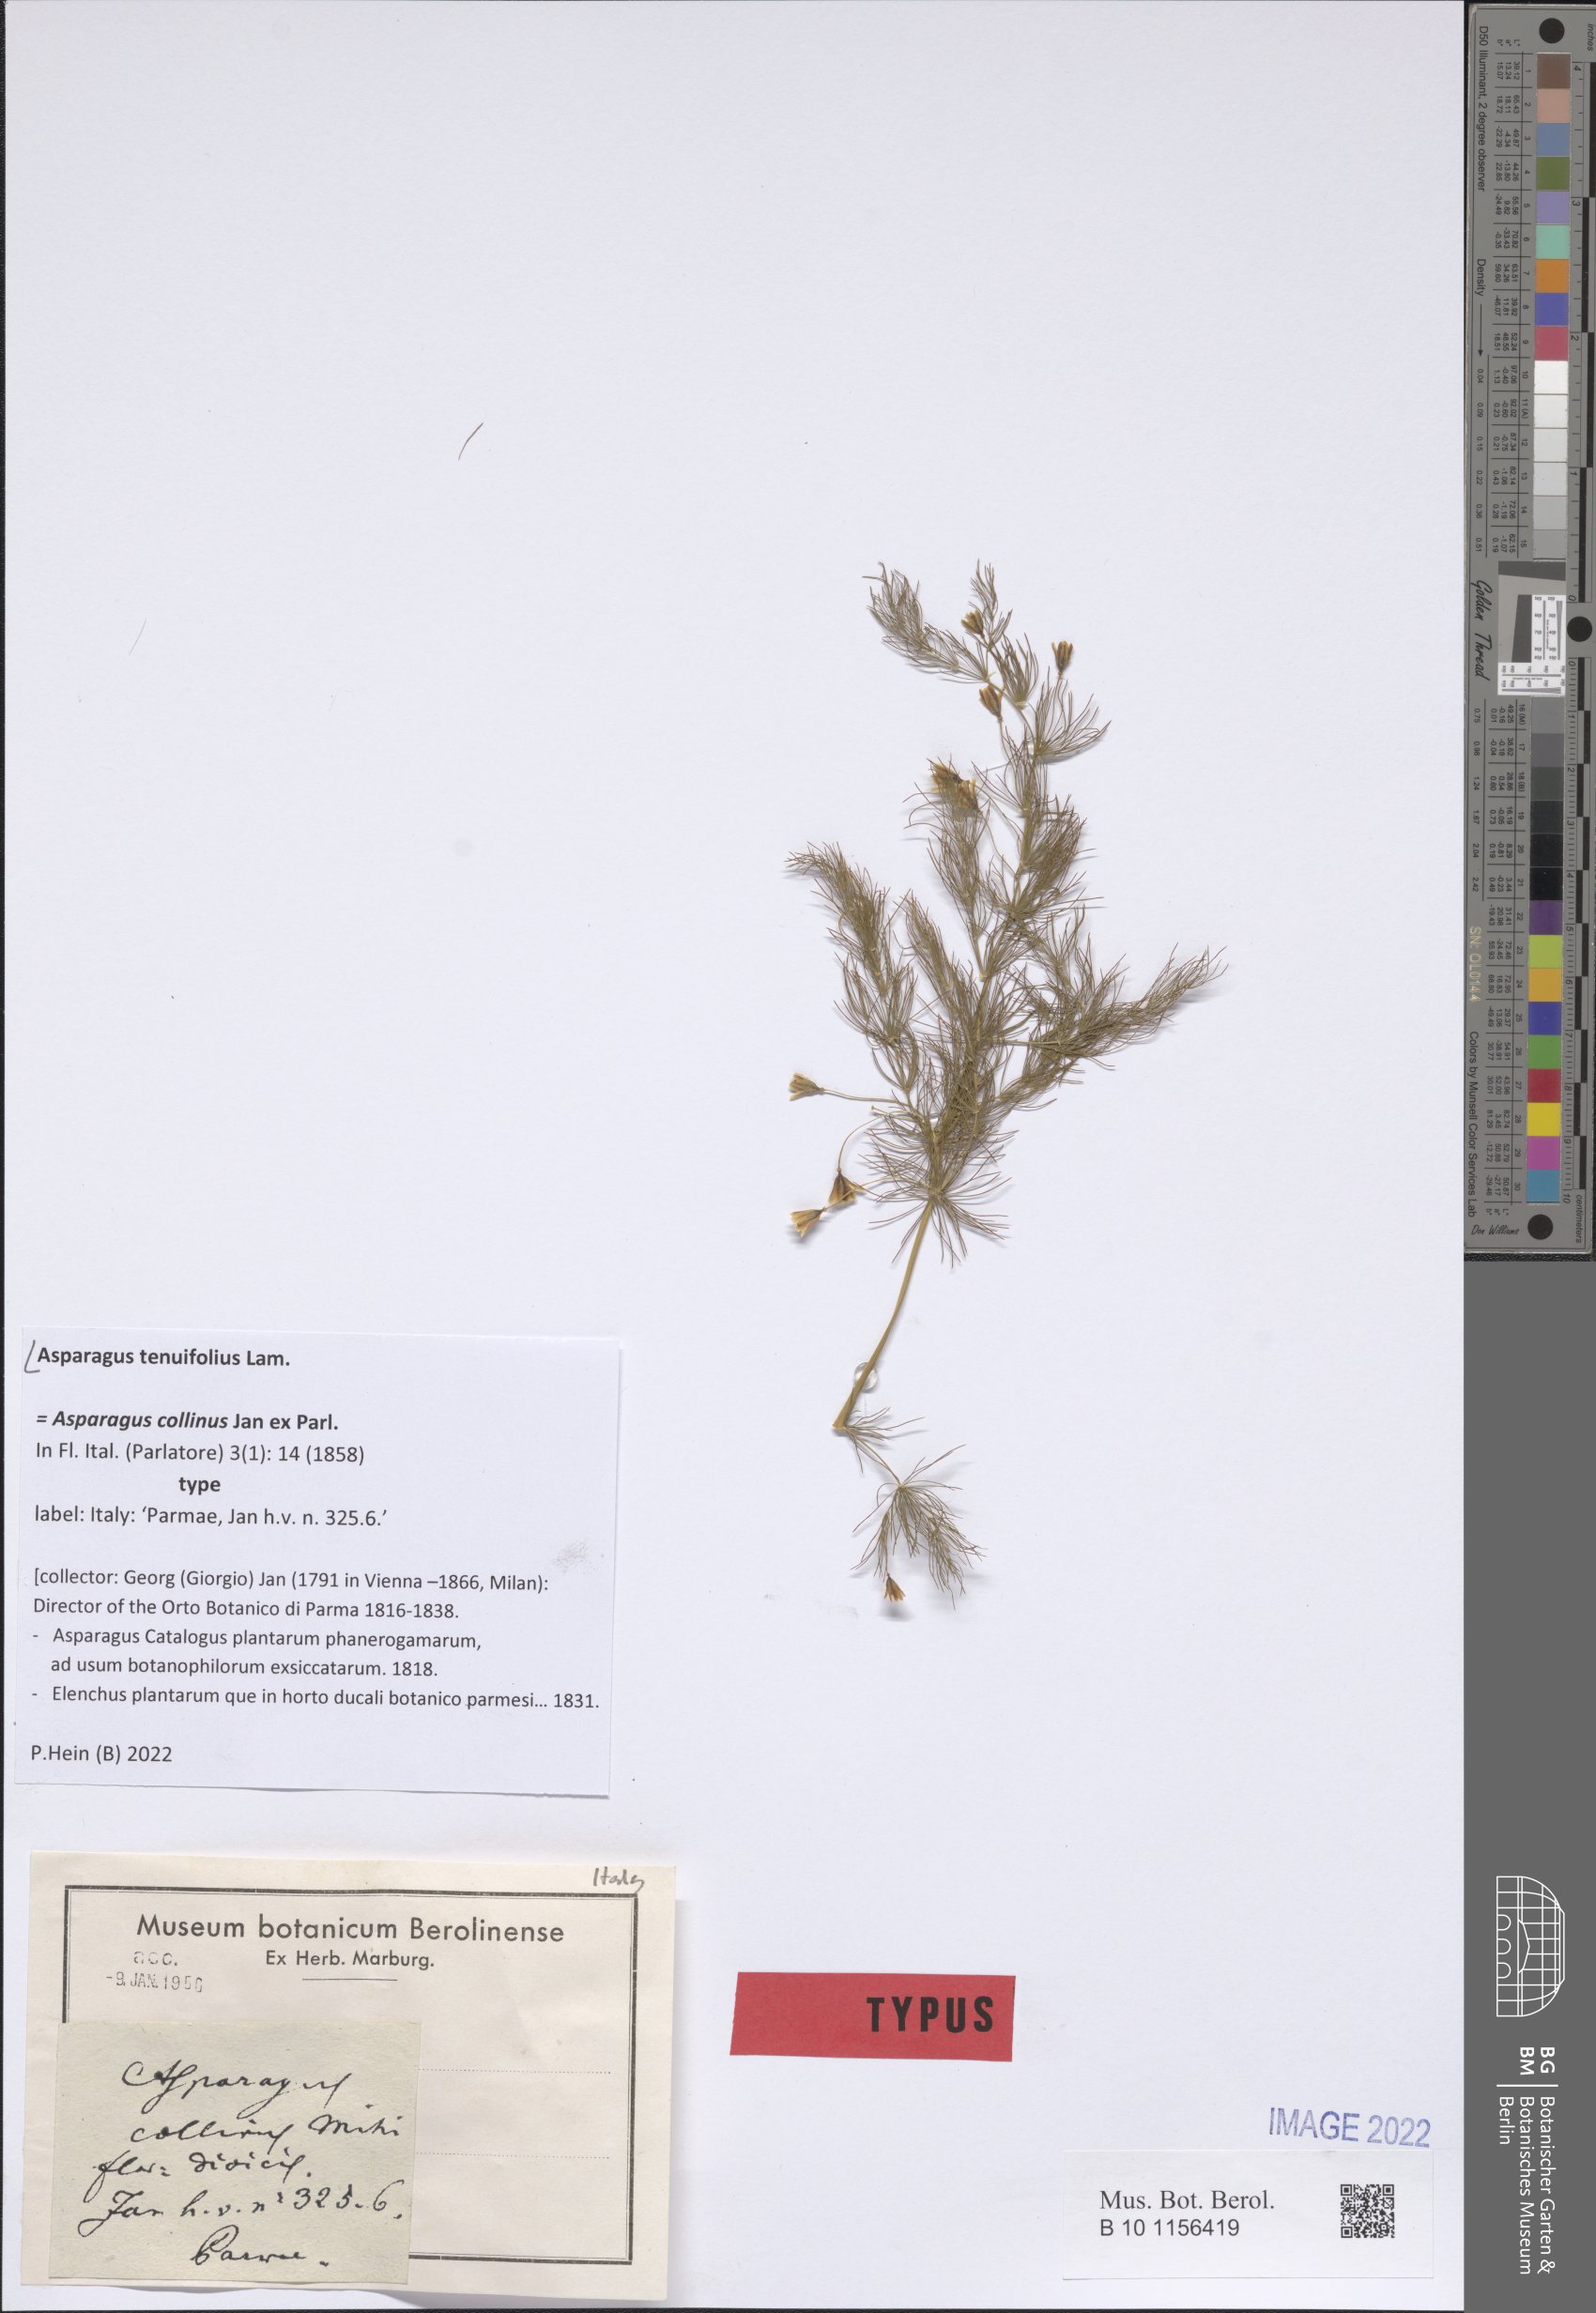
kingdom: Plantae
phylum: Tracheophyta
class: Liliopsida
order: Asparagales
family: Asparagaceae
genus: Asparagus
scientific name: Asparagus tenuifolius
